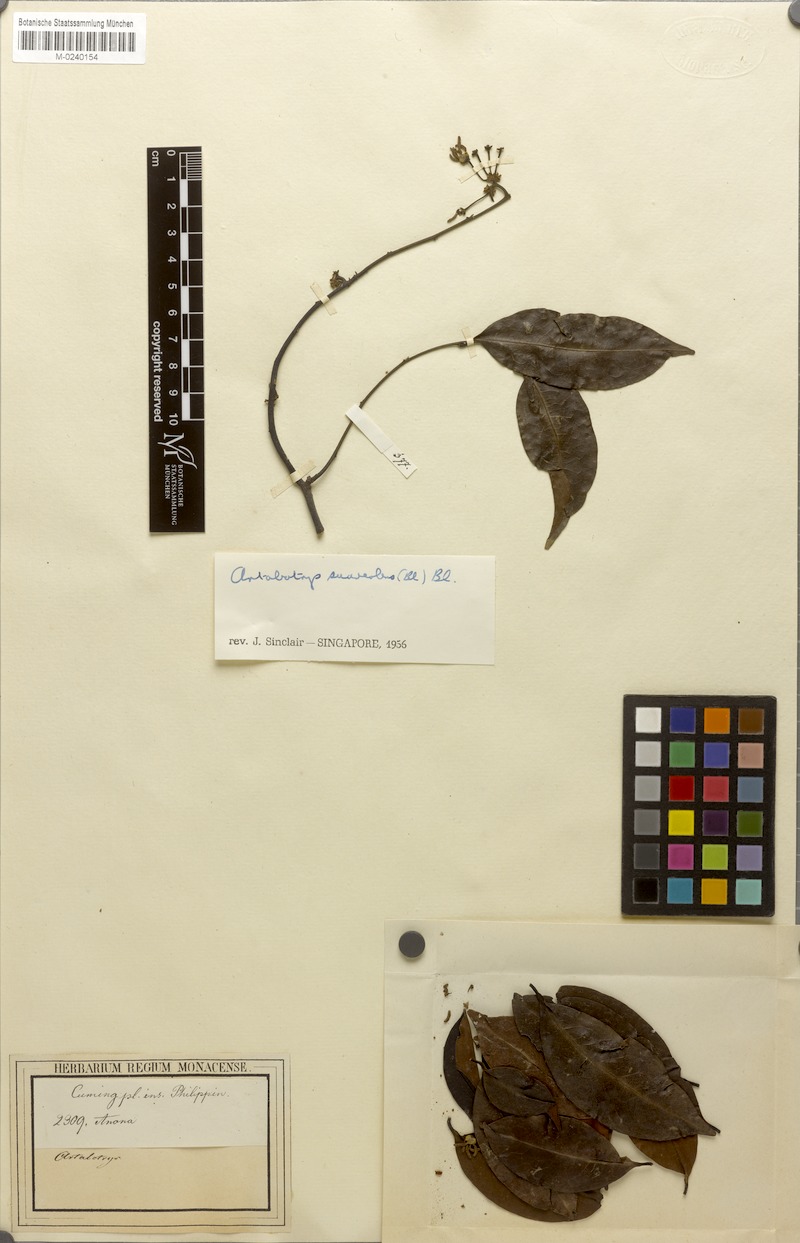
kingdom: Plantae
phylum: Tracheophyta
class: Magnoliopsida
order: Magnoliales
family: Annonaceae
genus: Artabotrys
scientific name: Artabotrys suaveolens
